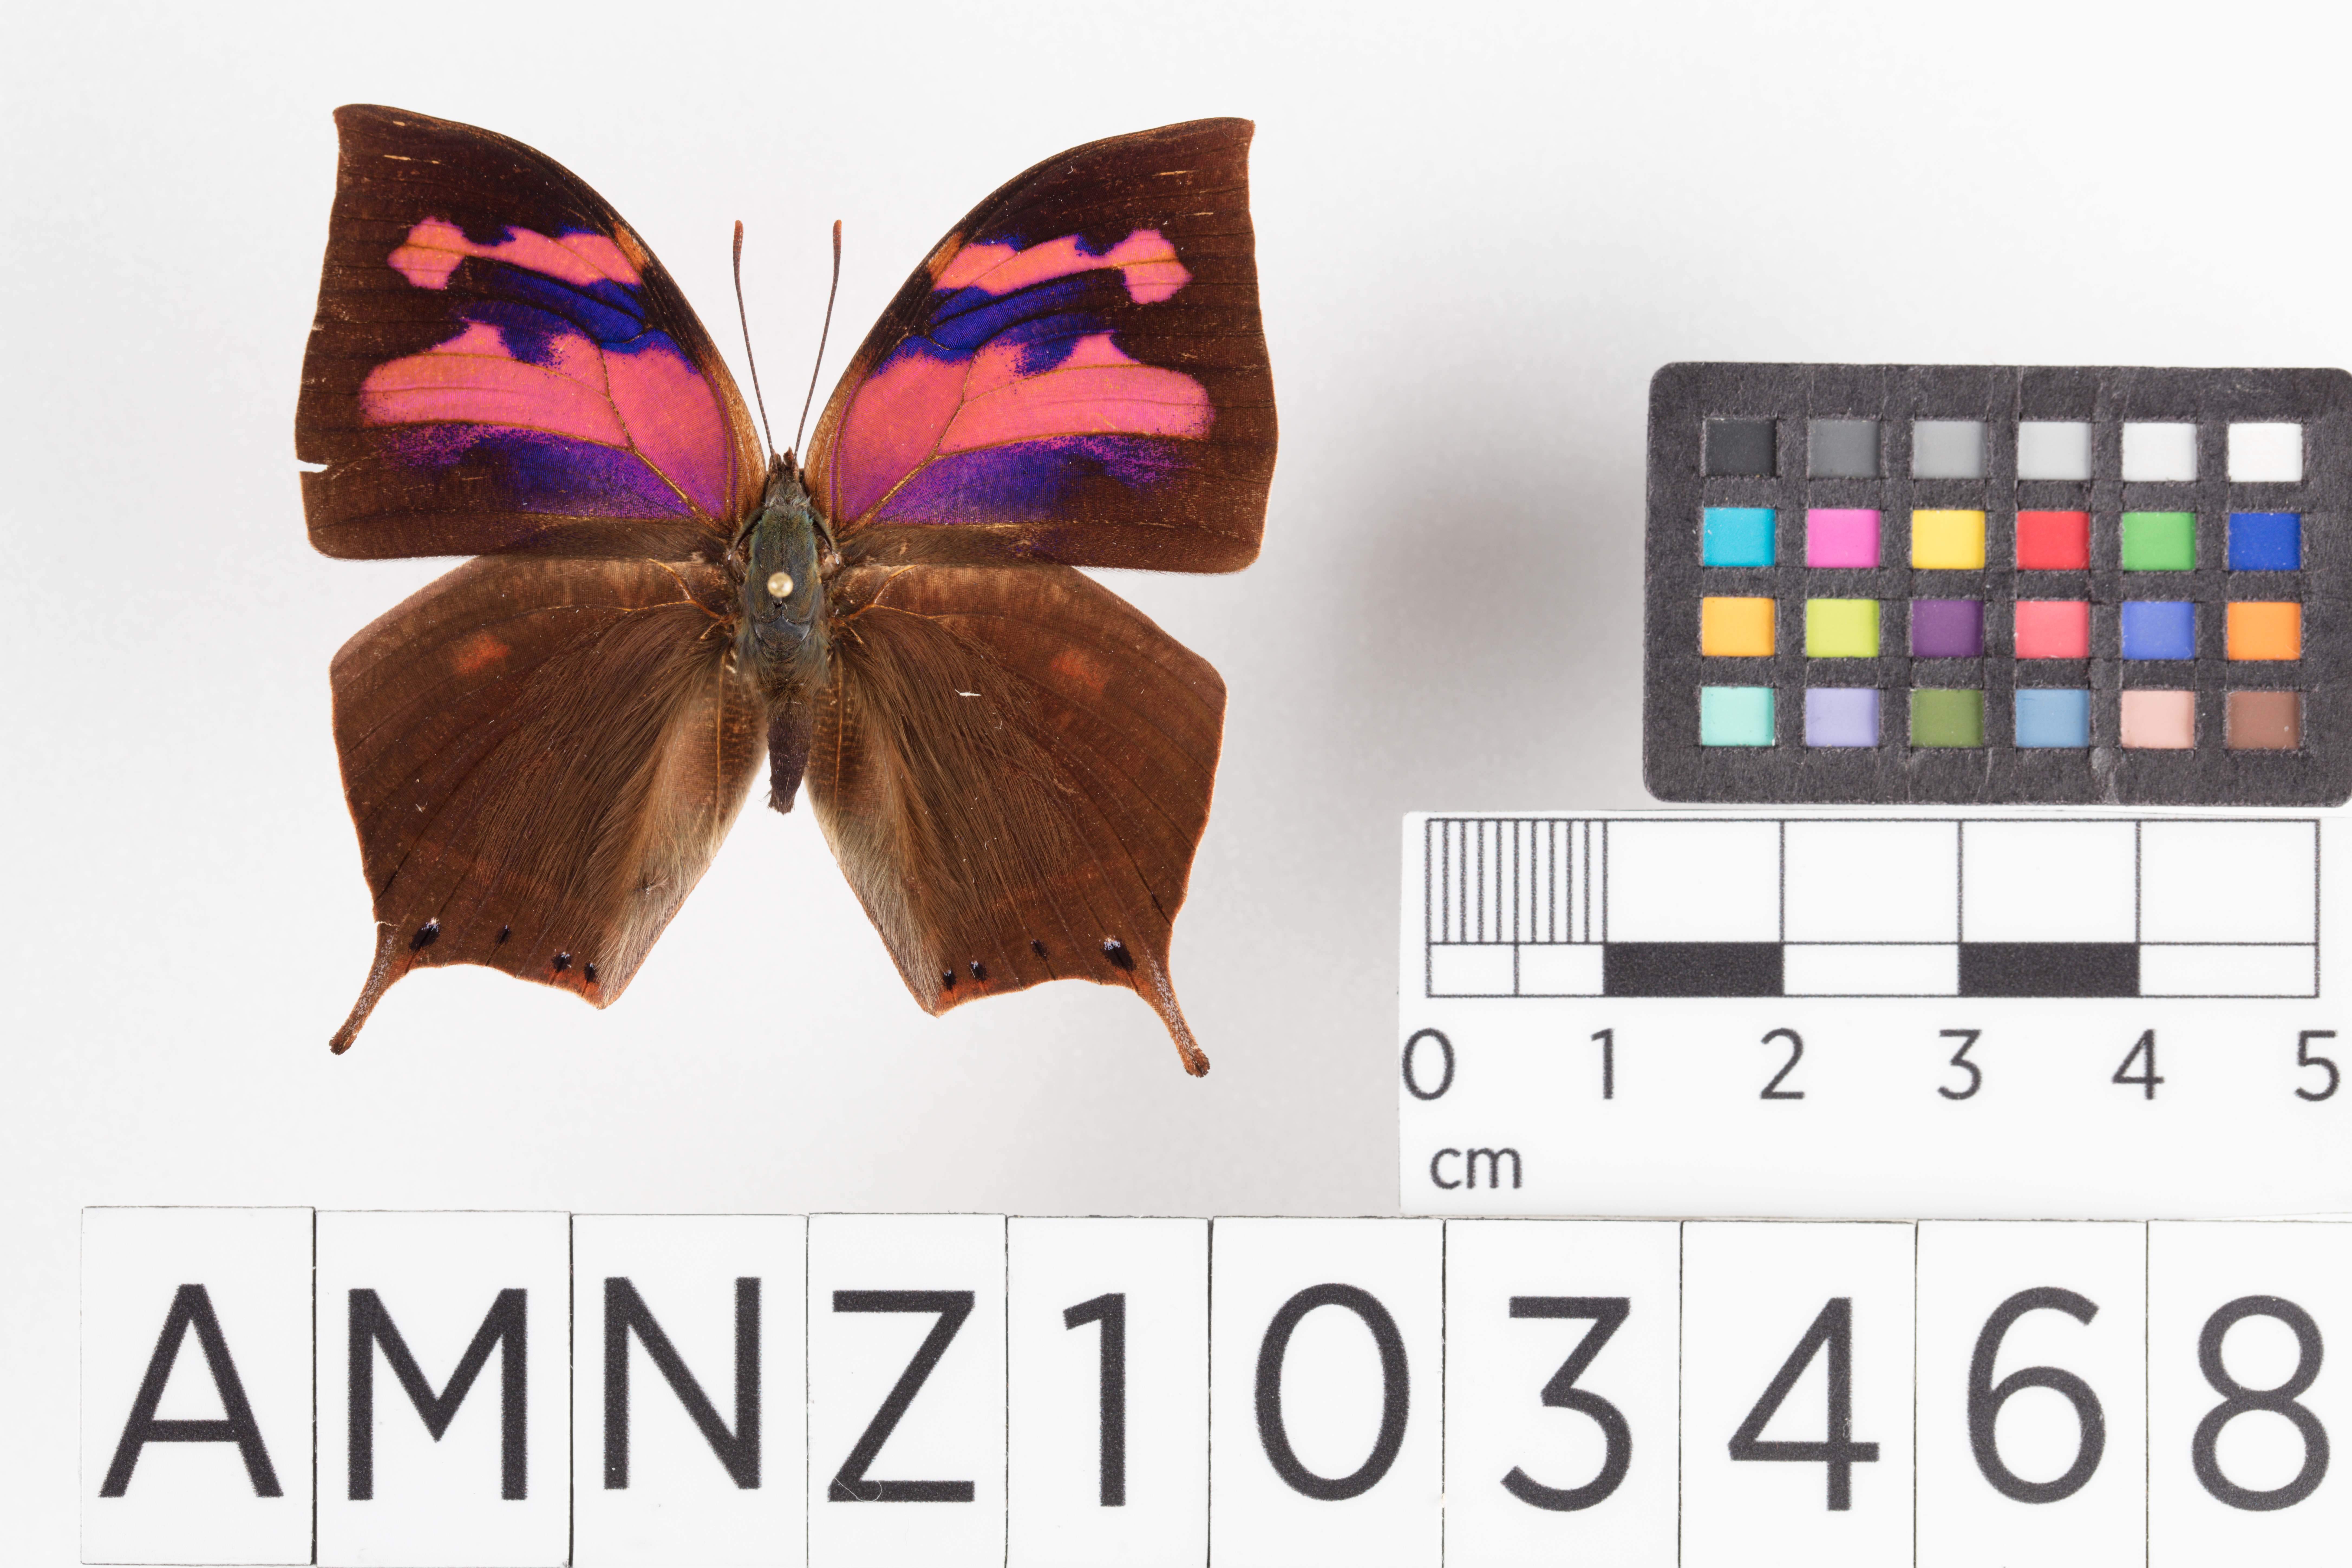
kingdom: Animalia
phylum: Arthropoda
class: Insecta
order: Lepidoptera
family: Nymphalidae
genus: Fountainea
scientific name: Fountainea
